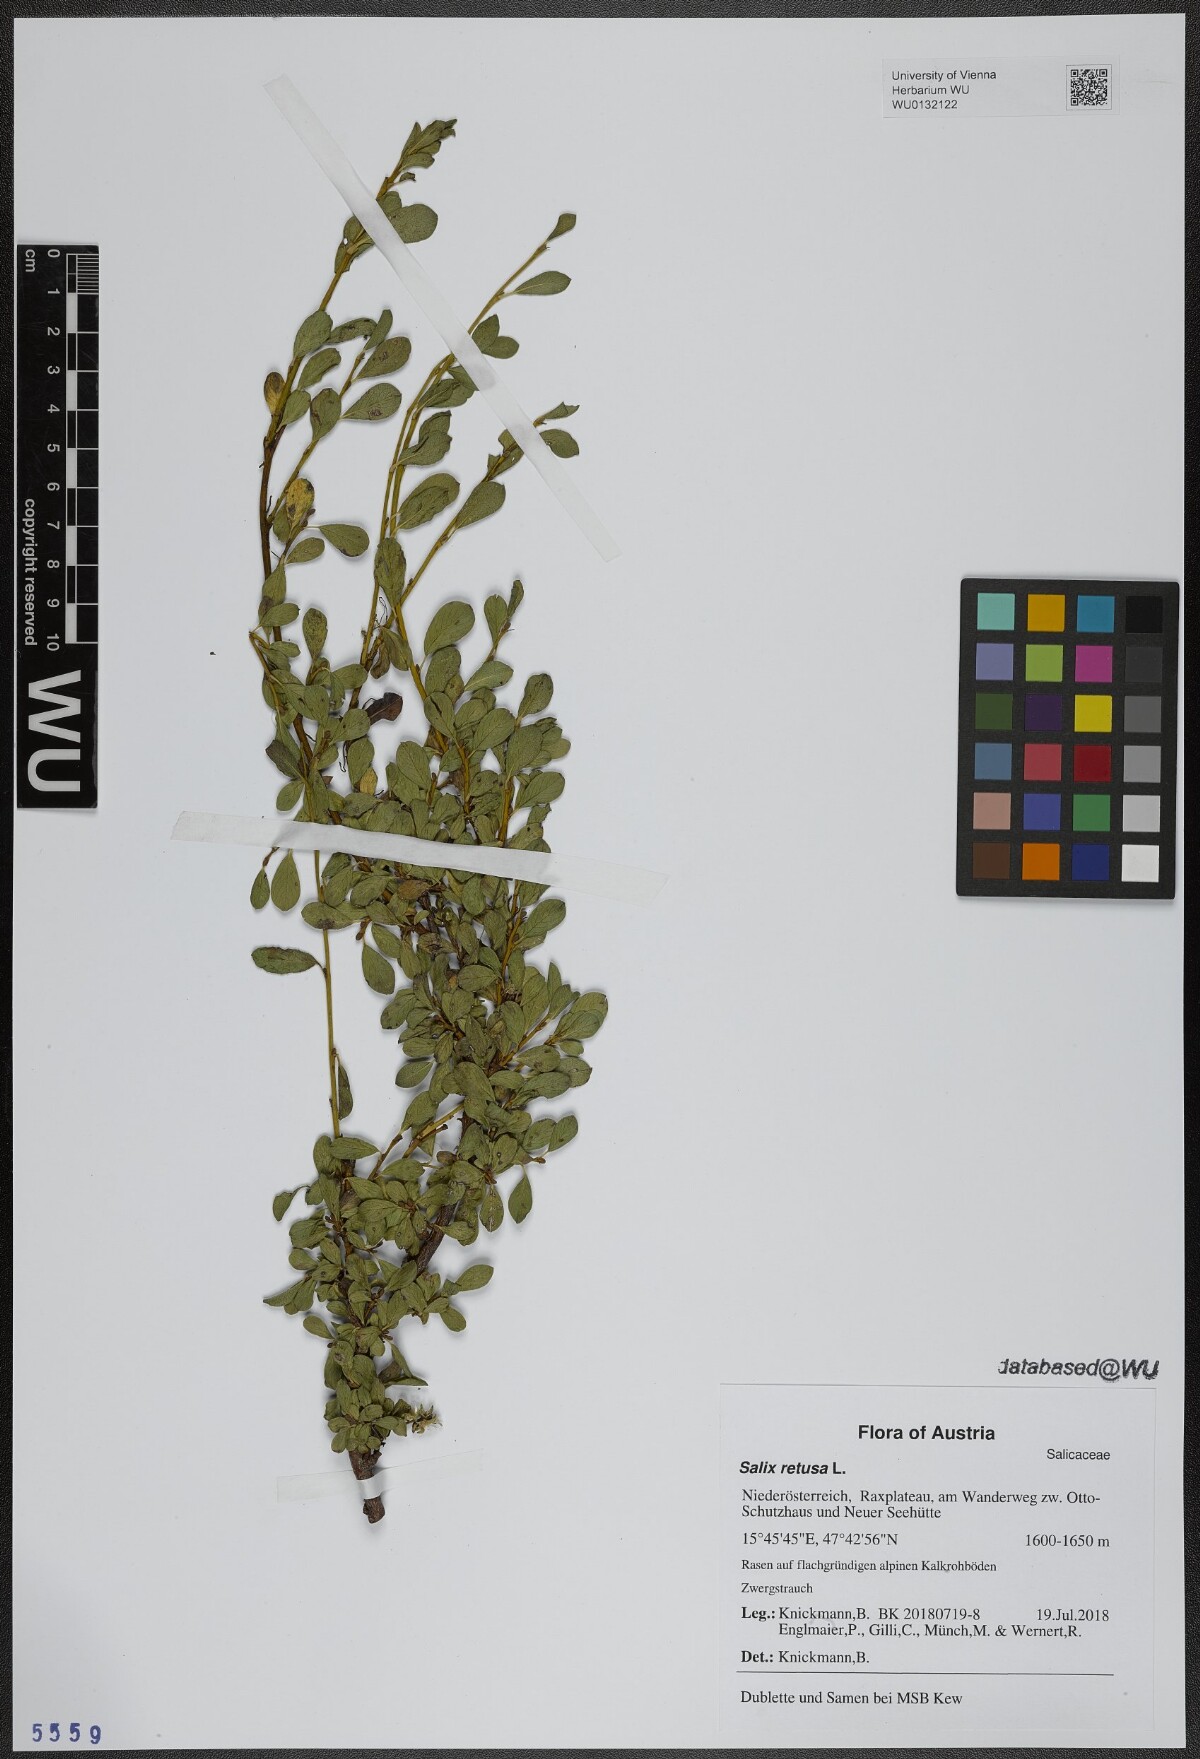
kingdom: Plantae
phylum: Tracheophyta
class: Magnoliopsida
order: Malpighiales
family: Salicaceae
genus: Salix
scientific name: Salix retusa
